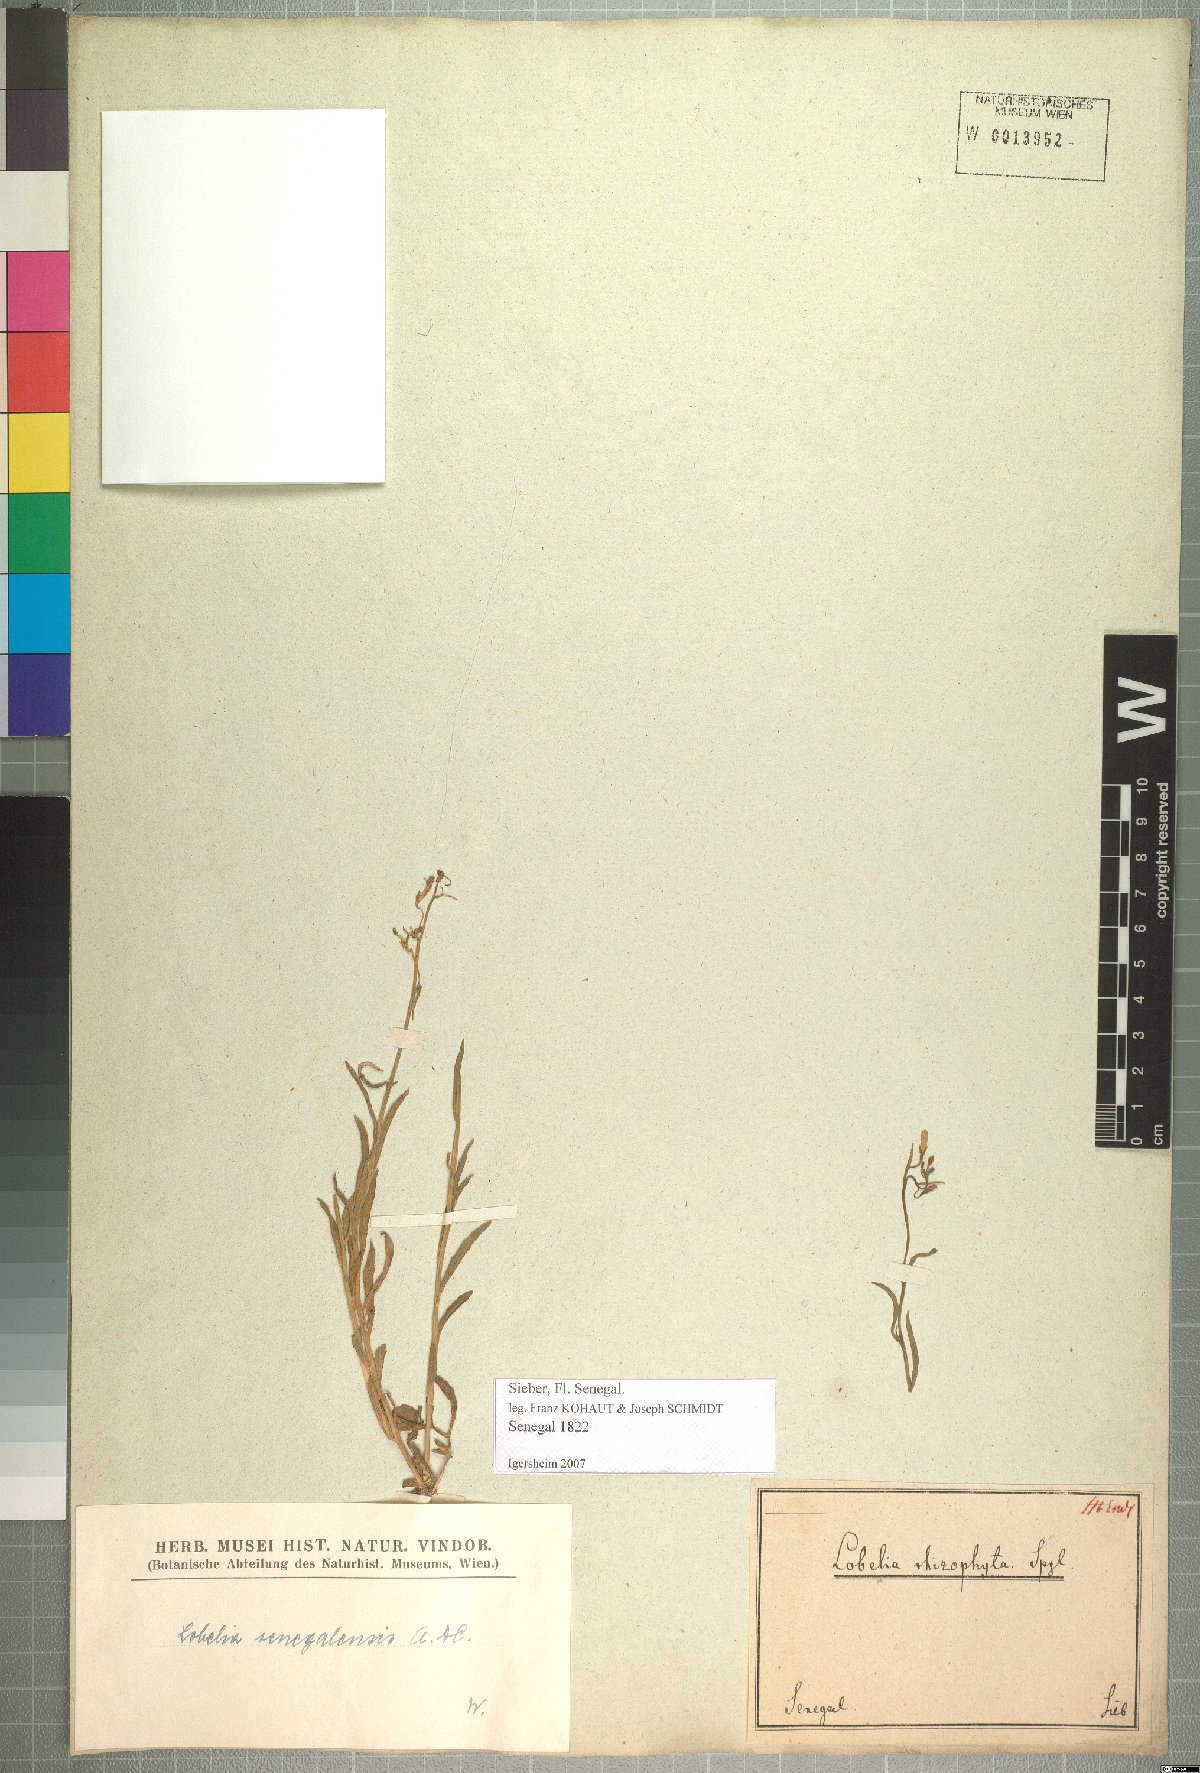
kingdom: Plantae
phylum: Tracheophyta
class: Magnoliopsida
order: Asterales
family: Campanulaceae
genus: Lobelia
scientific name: Lobelia erinus
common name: Edging lobelia
